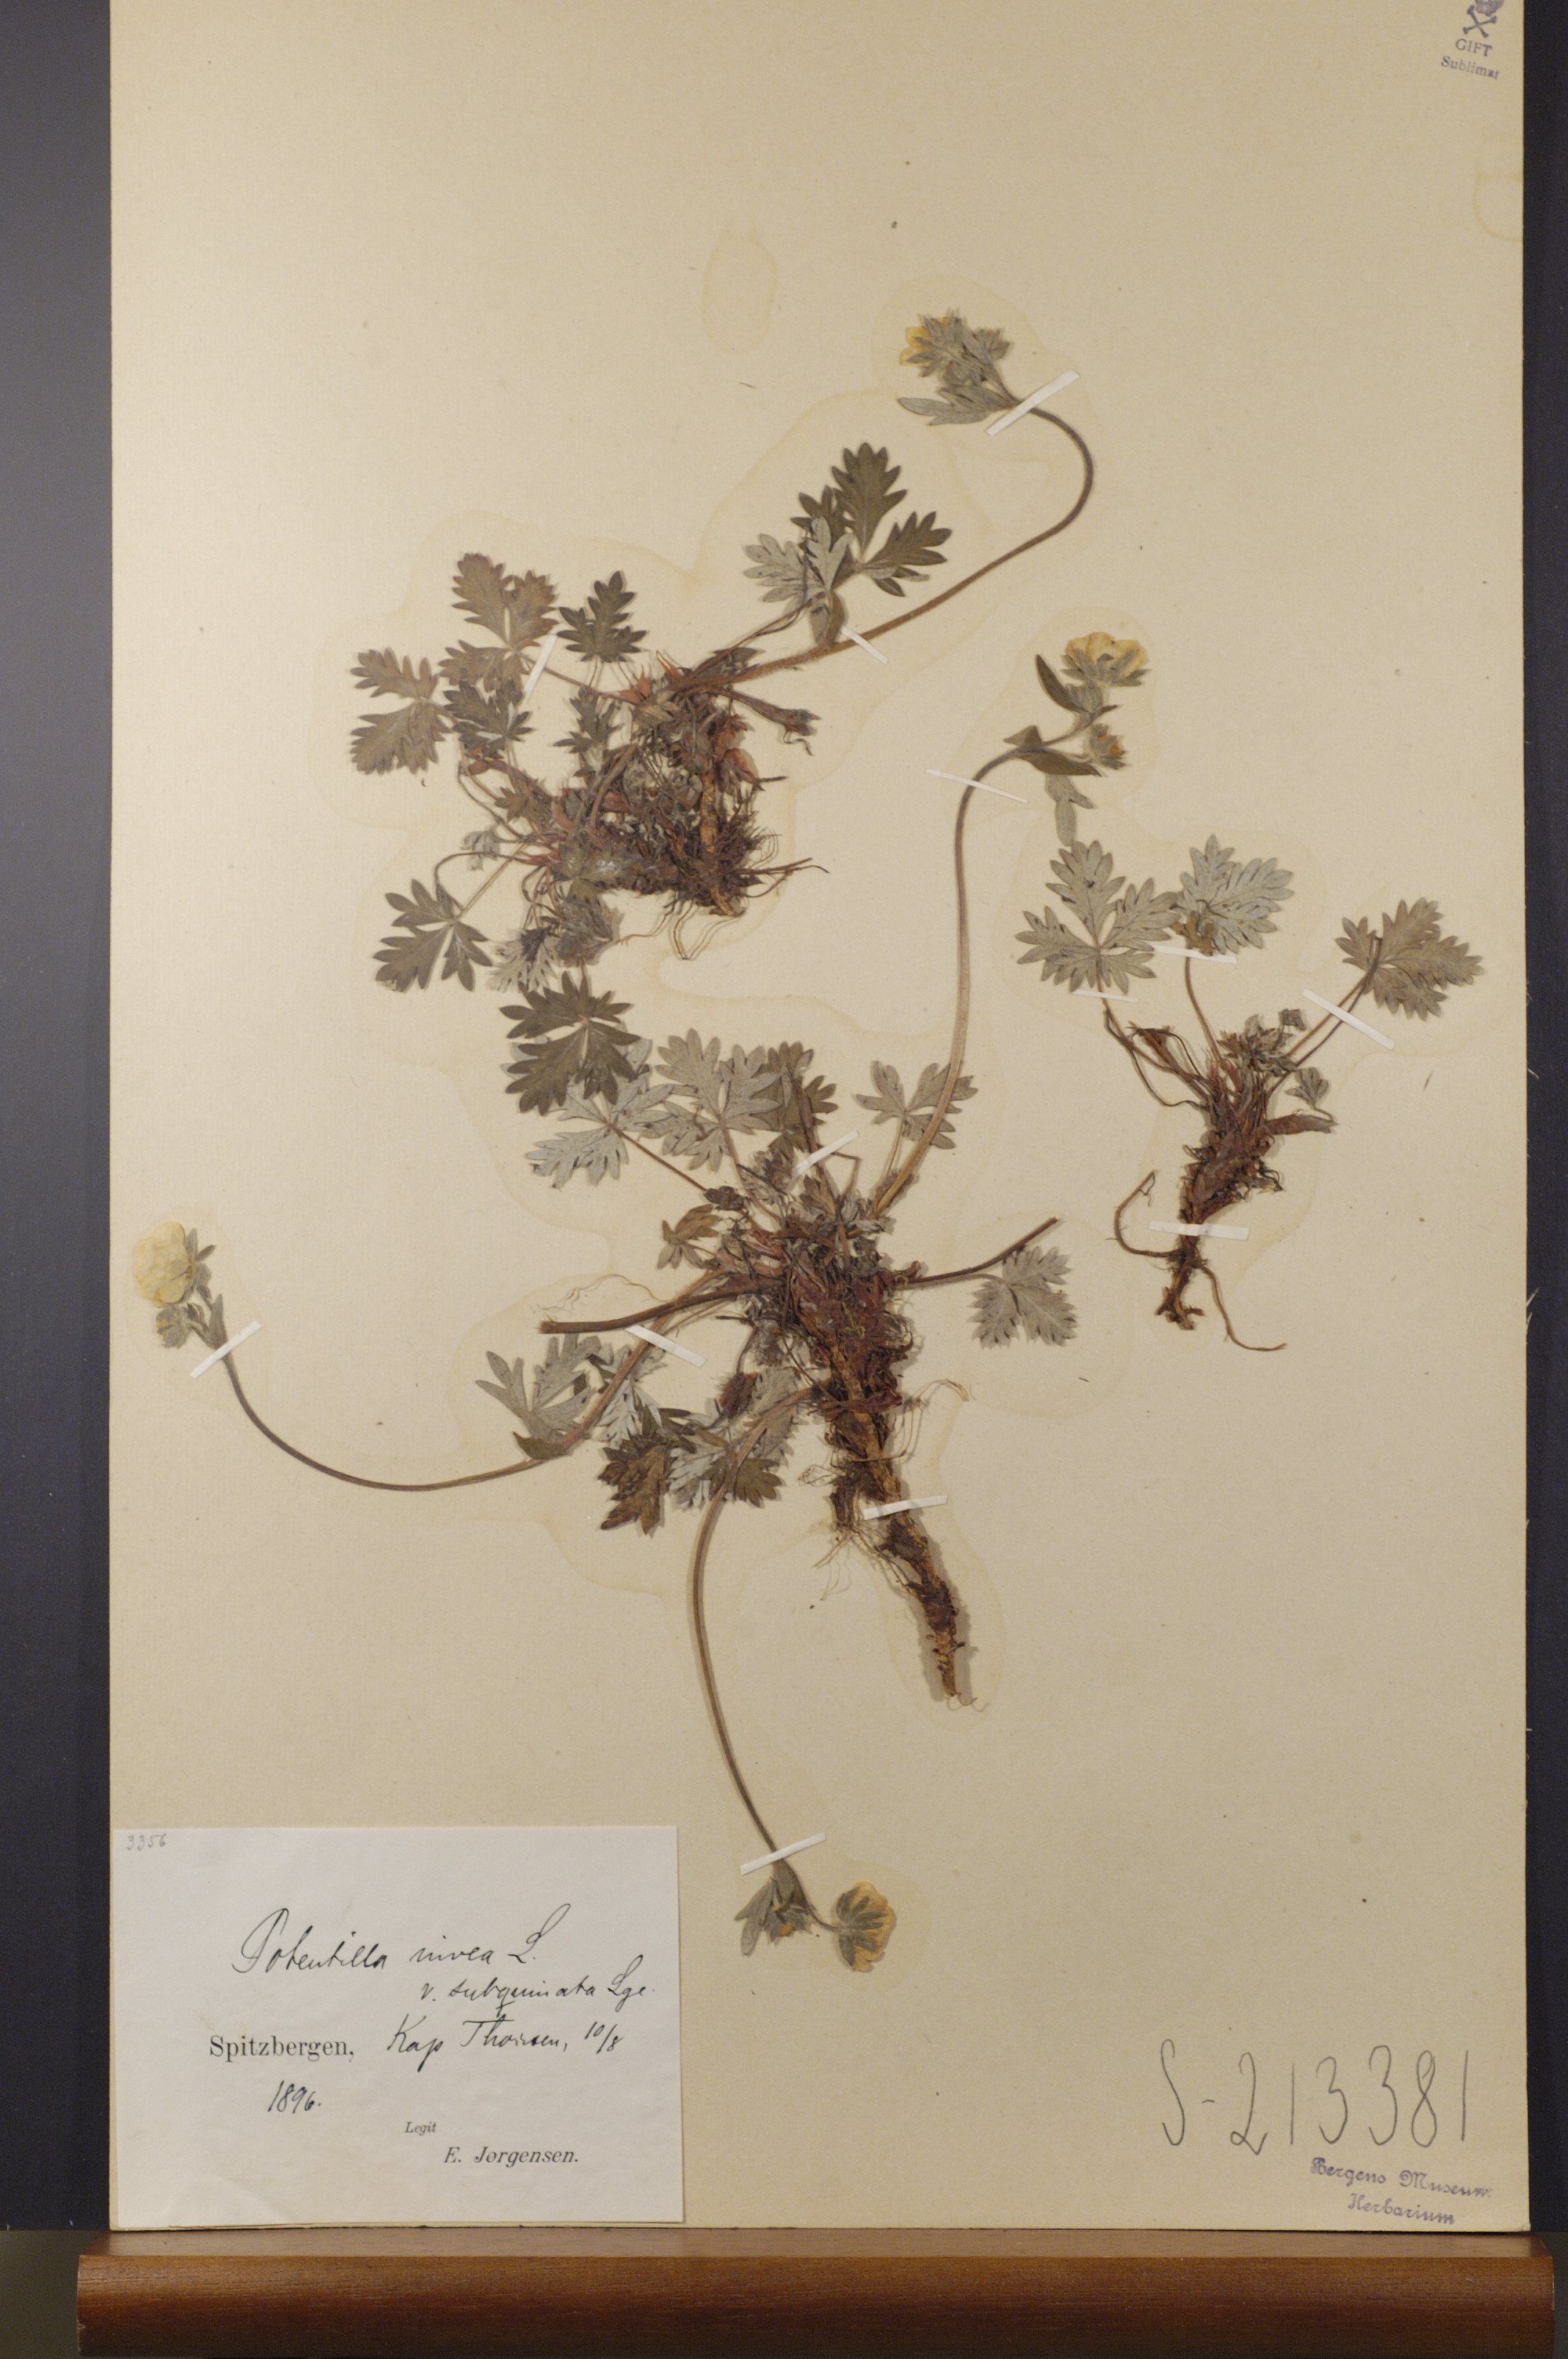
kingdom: Plantae
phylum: Tracheophyta
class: Magnoliopsida
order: Rosales
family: Rosaceae
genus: Potentilla
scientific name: Potentilla prostrata
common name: Prostrate cinquefoil
